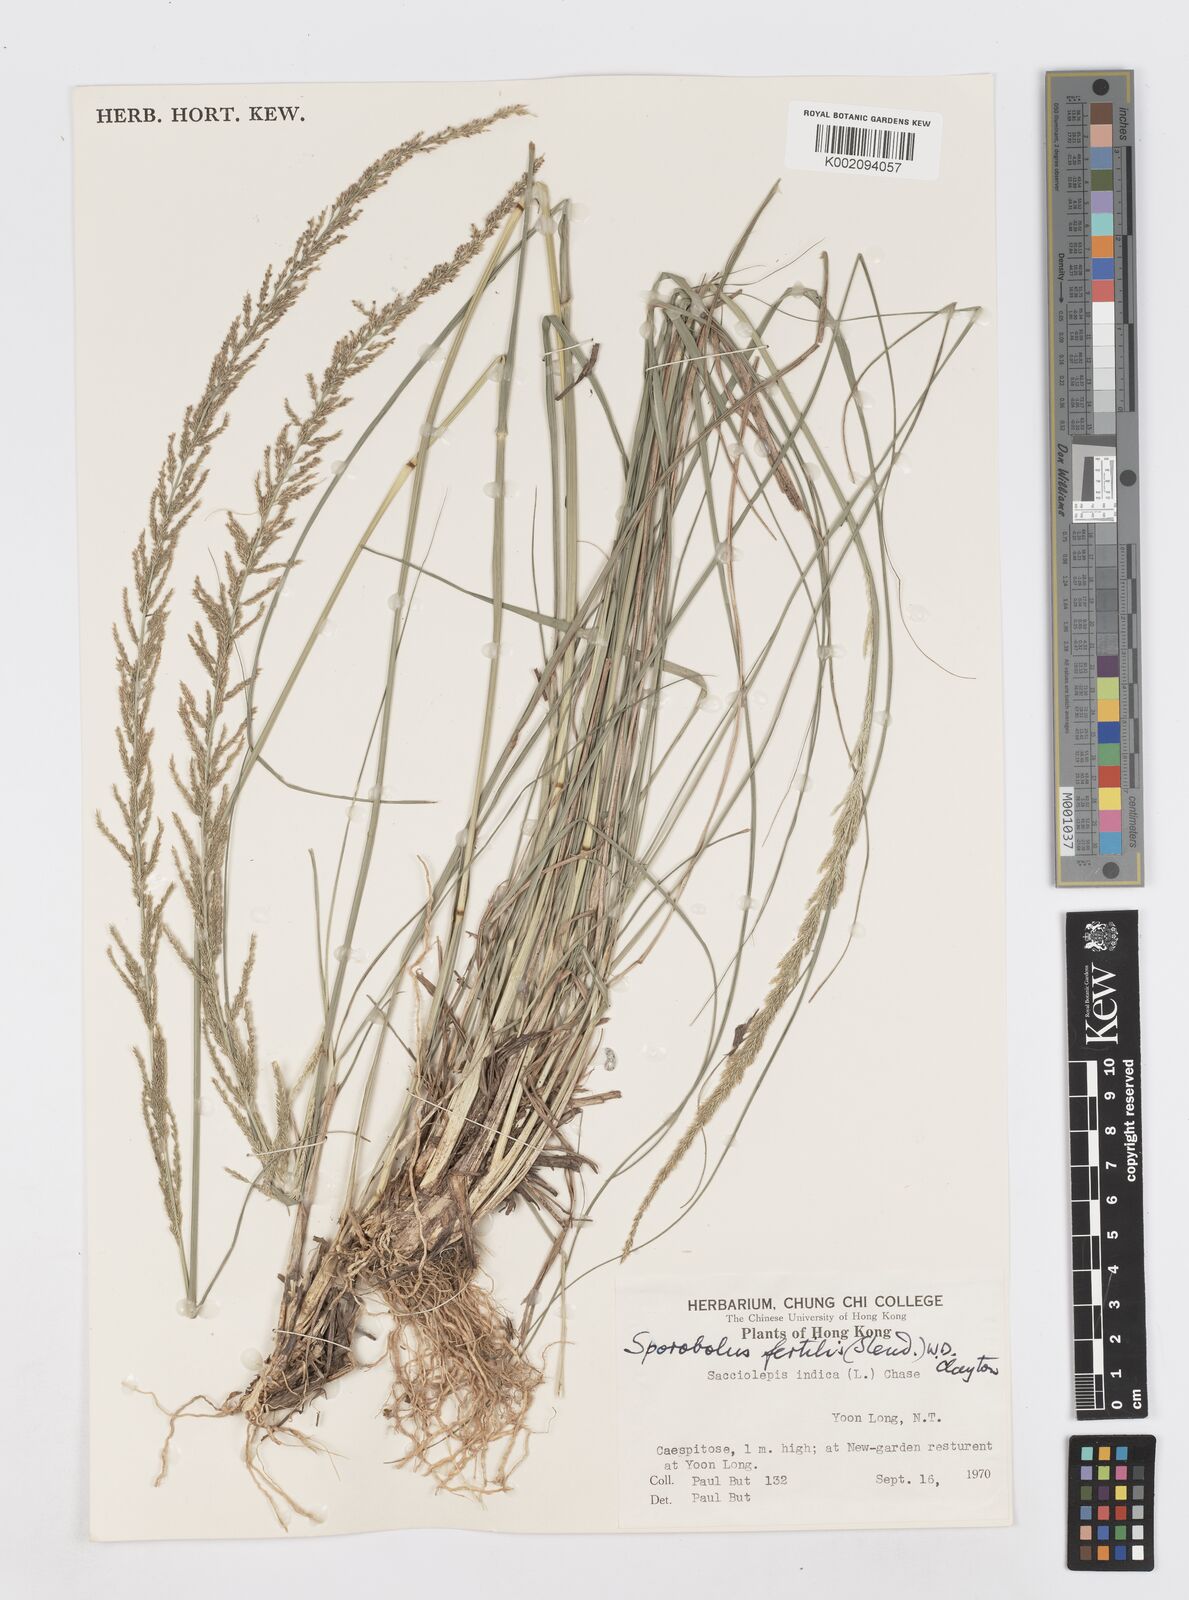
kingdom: Plantae
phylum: Tracheophyta
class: Liliopsida
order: Poales
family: Poaceae
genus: Sporobolus
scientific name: Sporobolus fertilis
